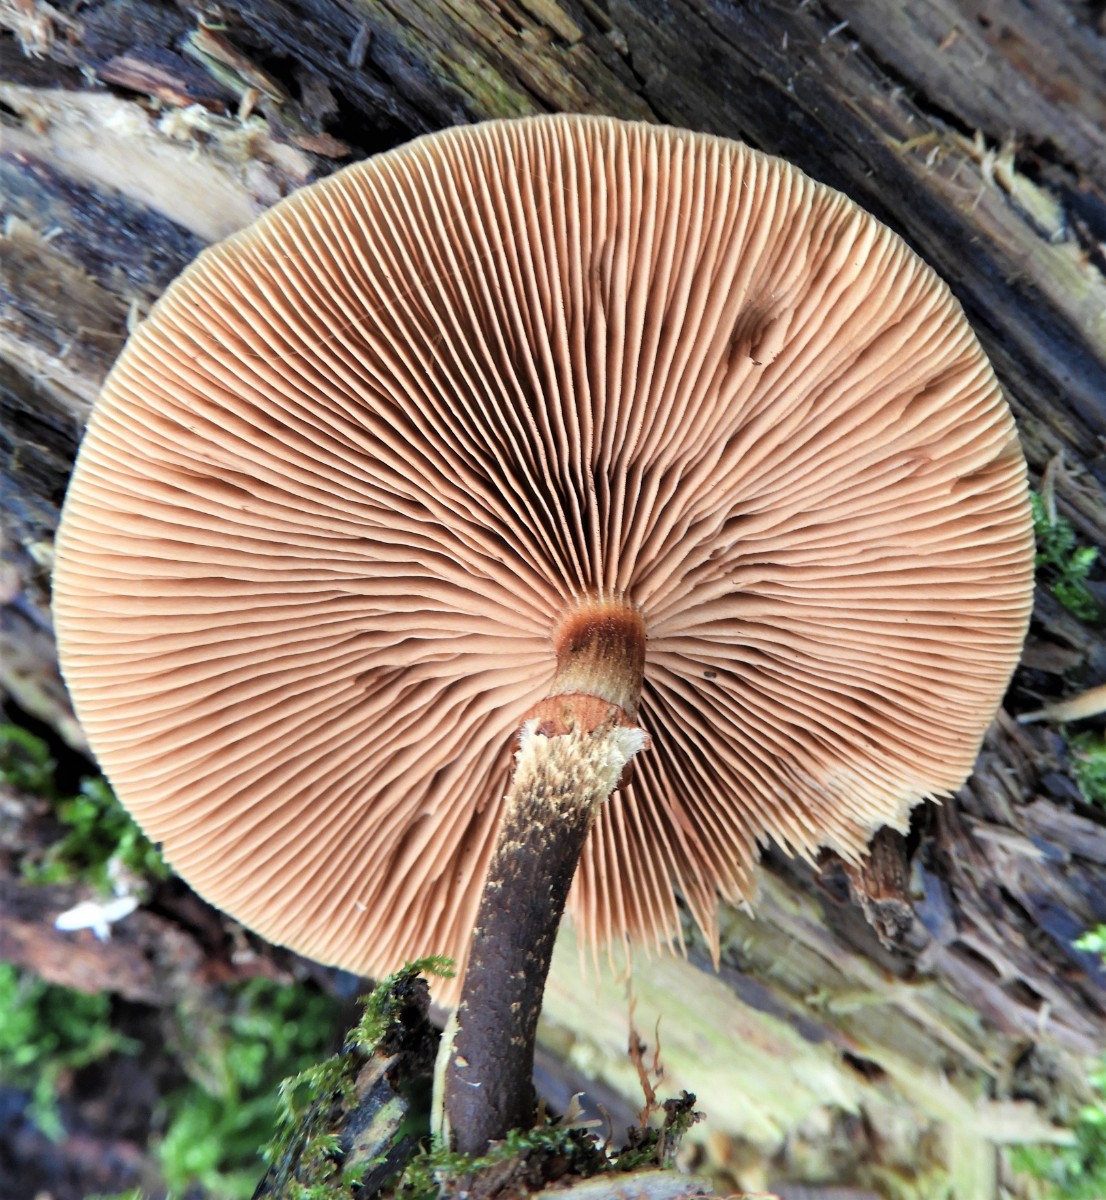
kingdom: Fungi
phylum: Basidiomycota
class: Agaricomycetes
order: Agaricales
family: Strophariaceae
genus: Kuehneromyces
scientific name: Kuehneromyces mutabilis
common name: foranderlig skælhat
